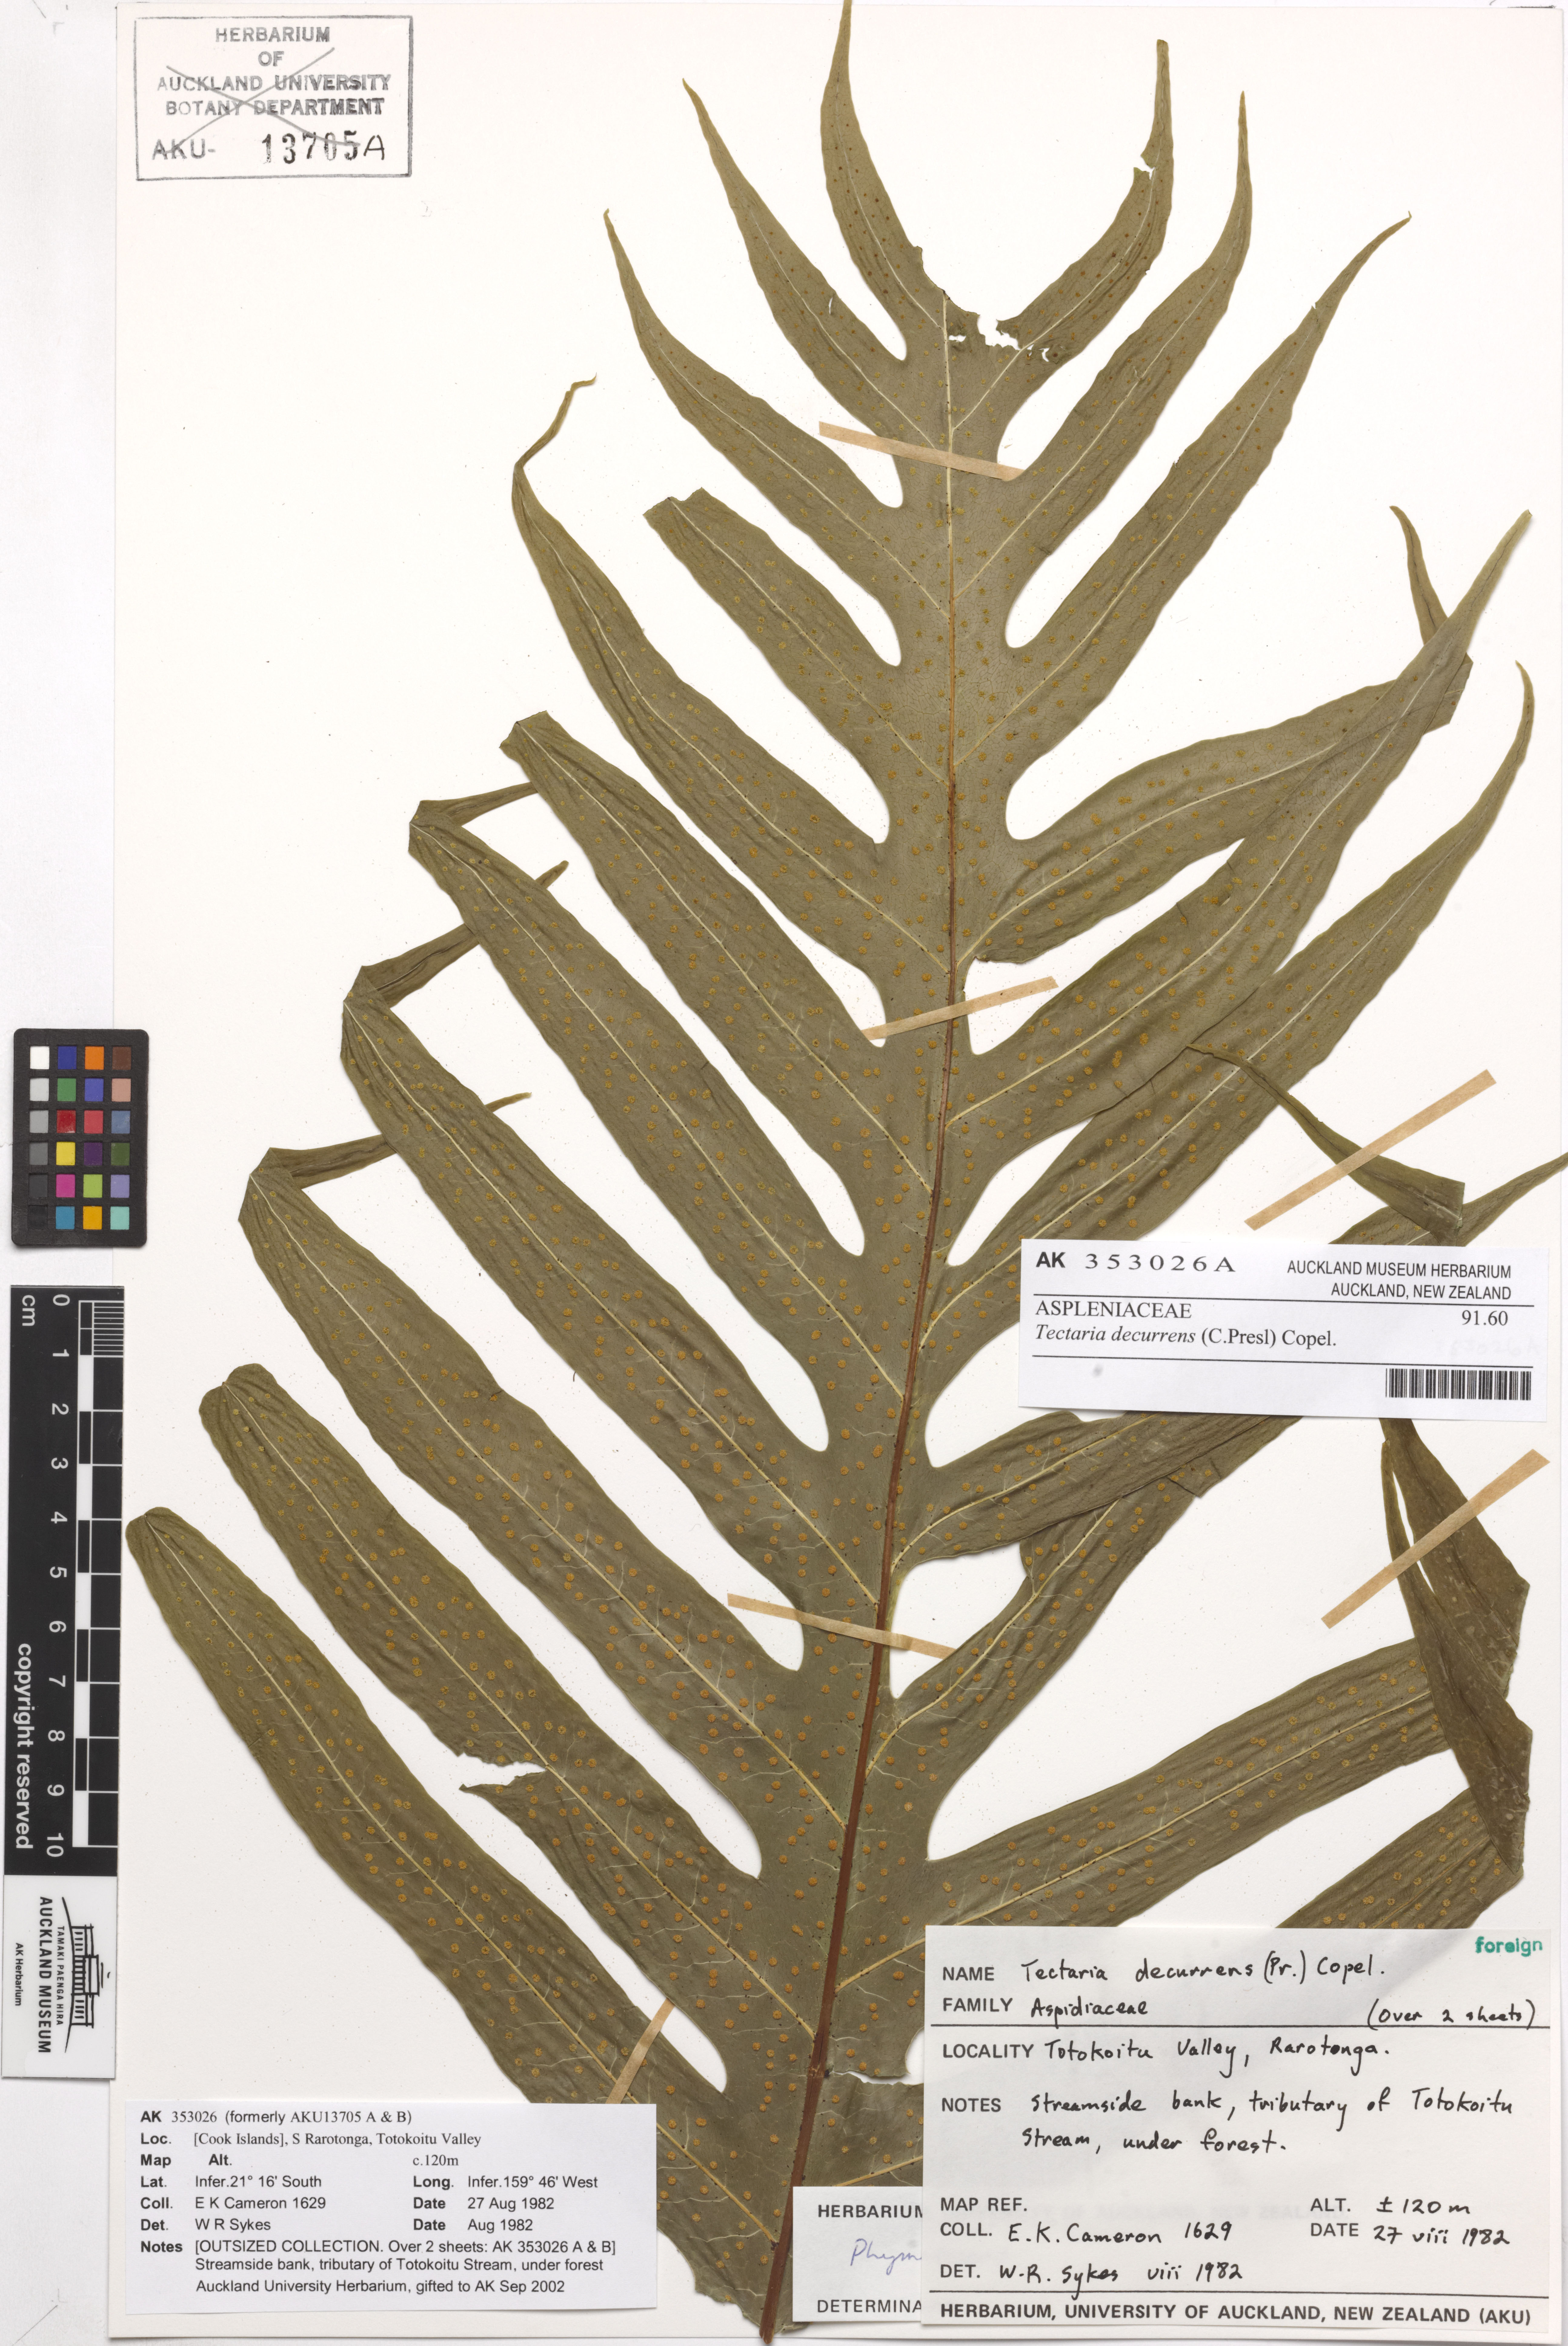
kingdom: Plantae
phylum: Tracheophyta
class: Polypodiopsida
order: Polypodiales
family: Polypodiaceae
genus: Microsorum
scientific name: Microsorum commutatum
